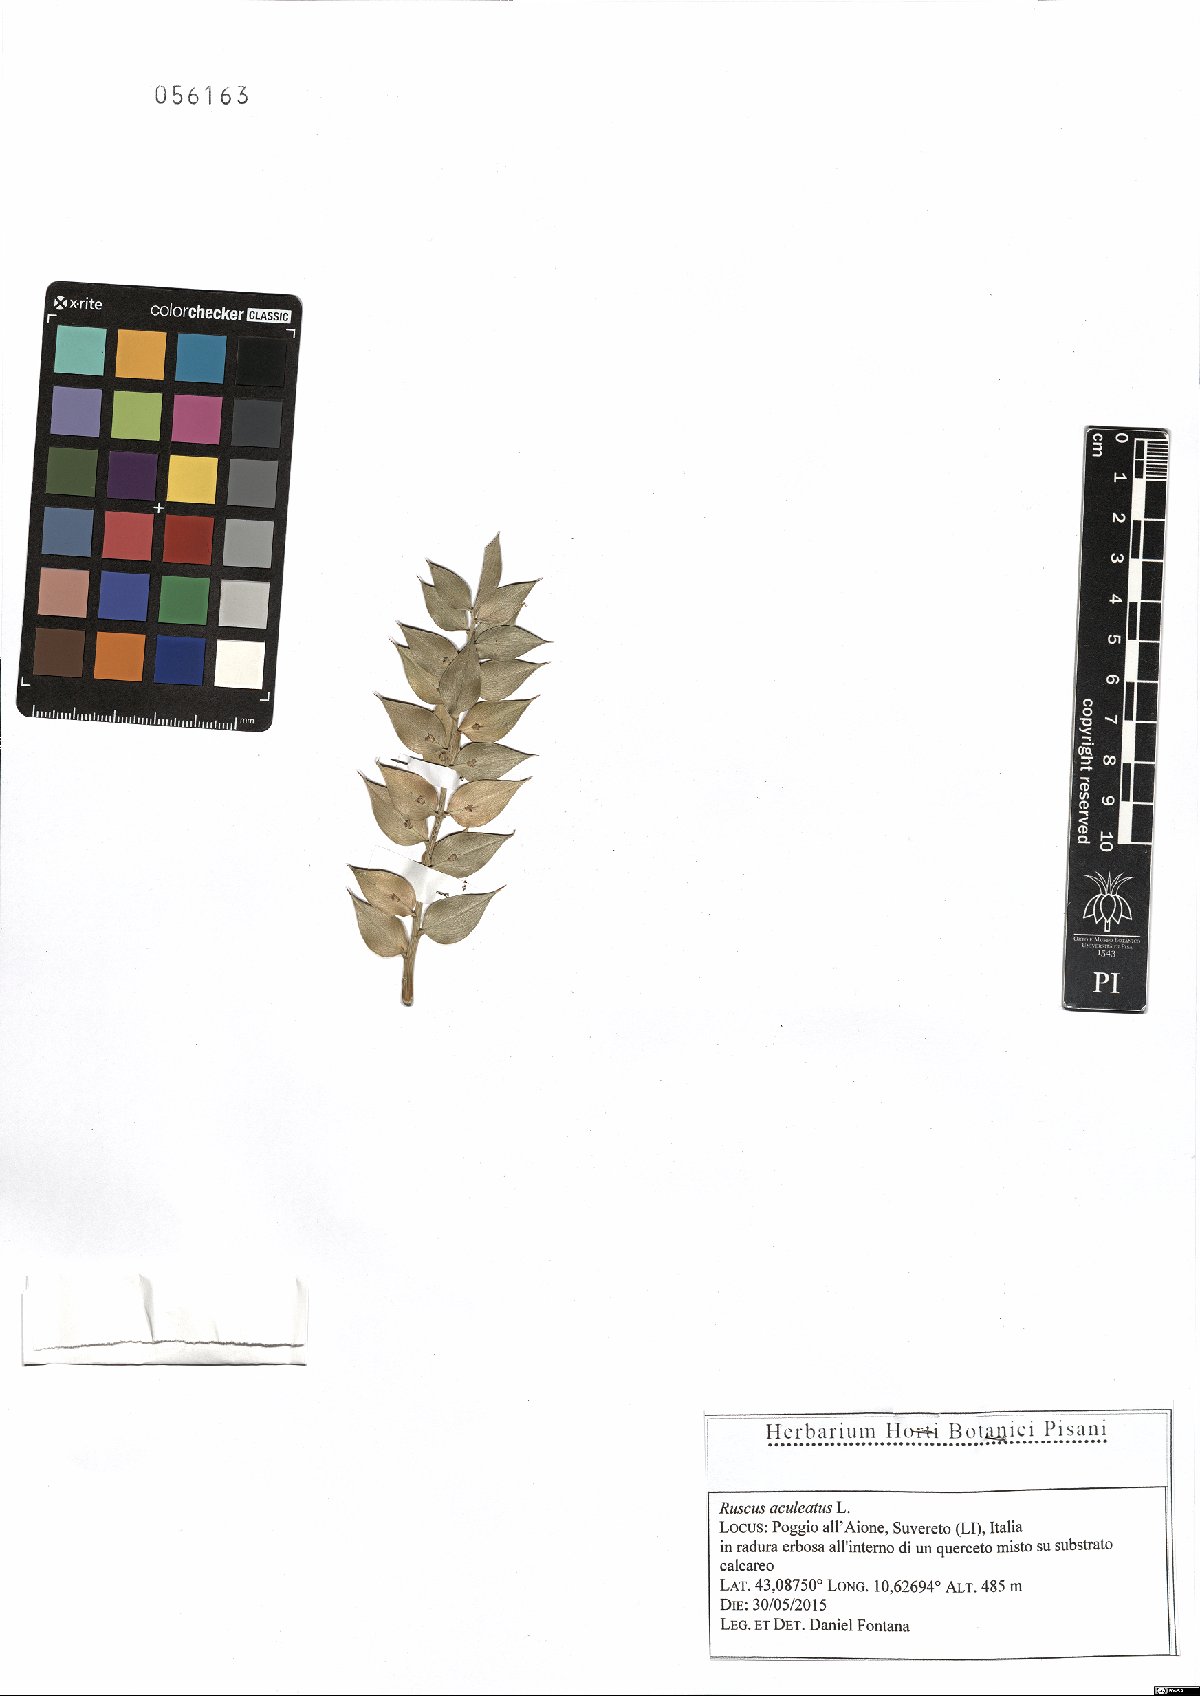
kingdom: Plantae
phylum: Tracheophyta
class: Liliopsida
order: Asparagales
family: Asparagaceae
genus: Ruscus
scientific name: Ruscus aculeatus
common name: Butcher's-broom
